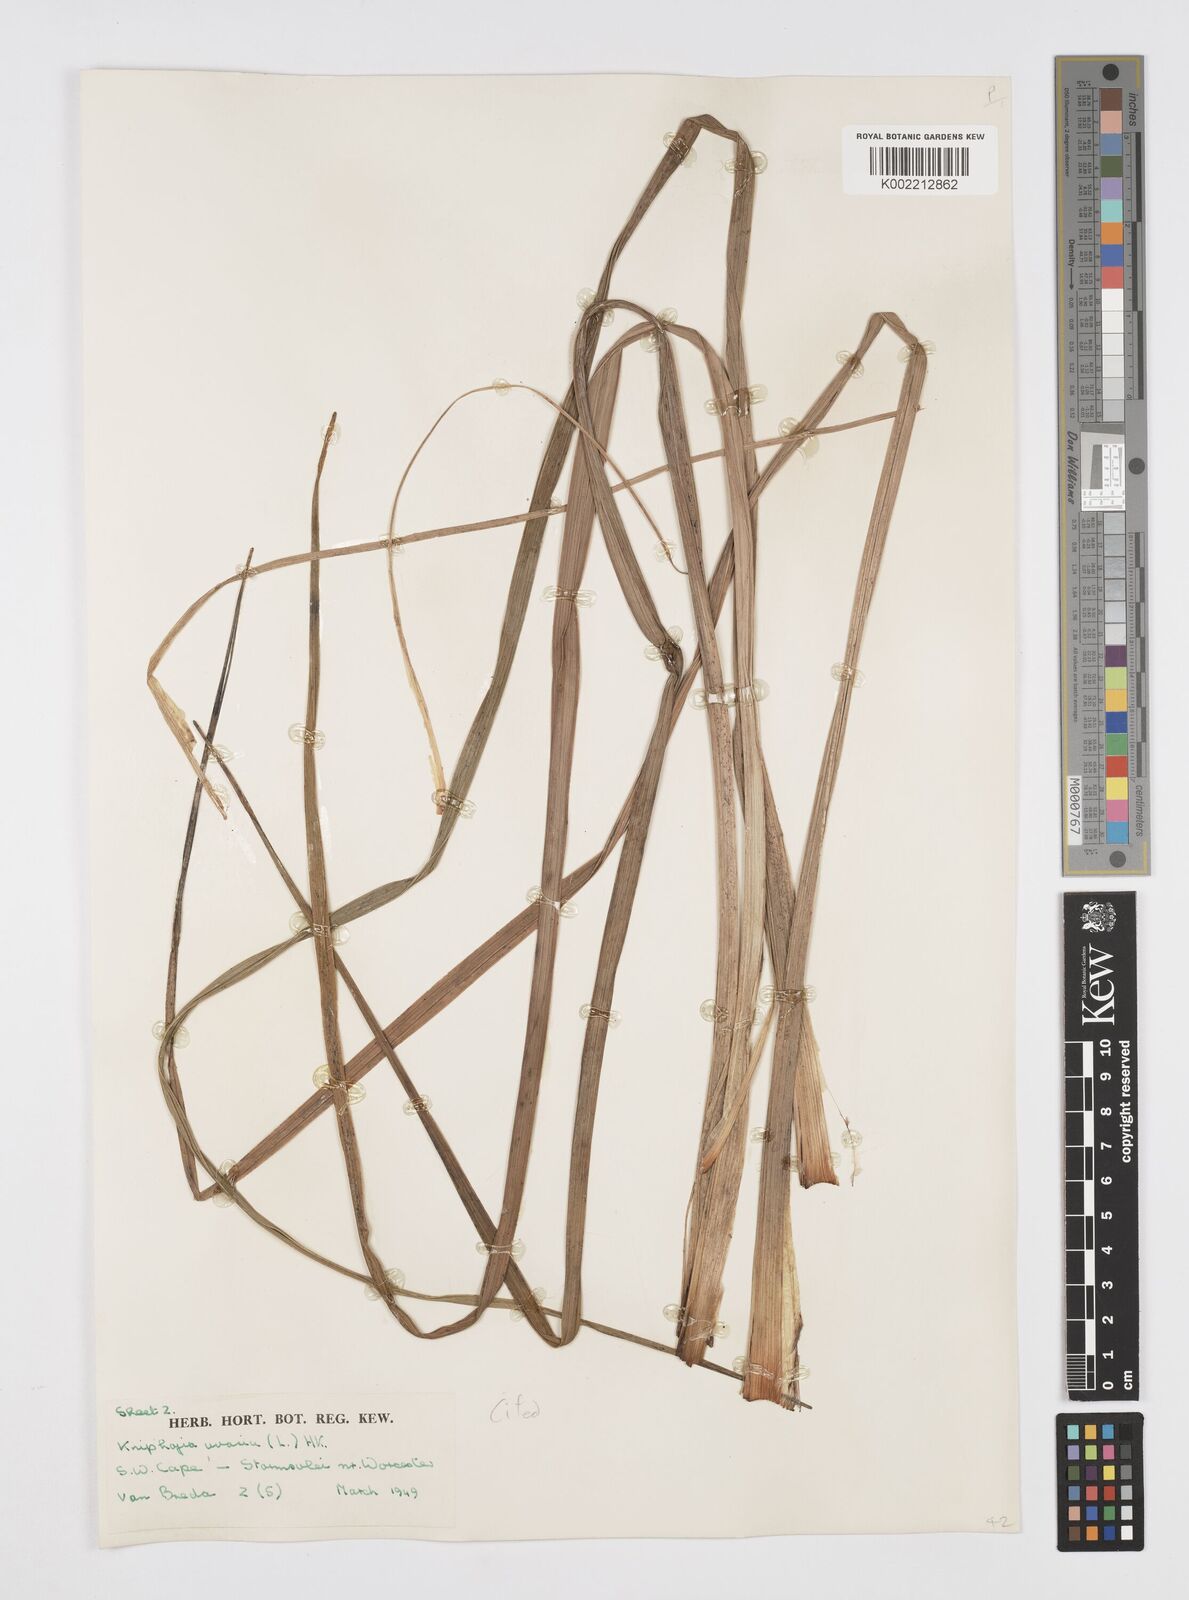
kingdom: Plantae
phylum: Tracheophyta
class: Liliopsida
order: Asparagales
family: Asphodelaceae
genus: Kniphofia
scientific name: Kniphofia uvaria
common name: Red-hot-poker
